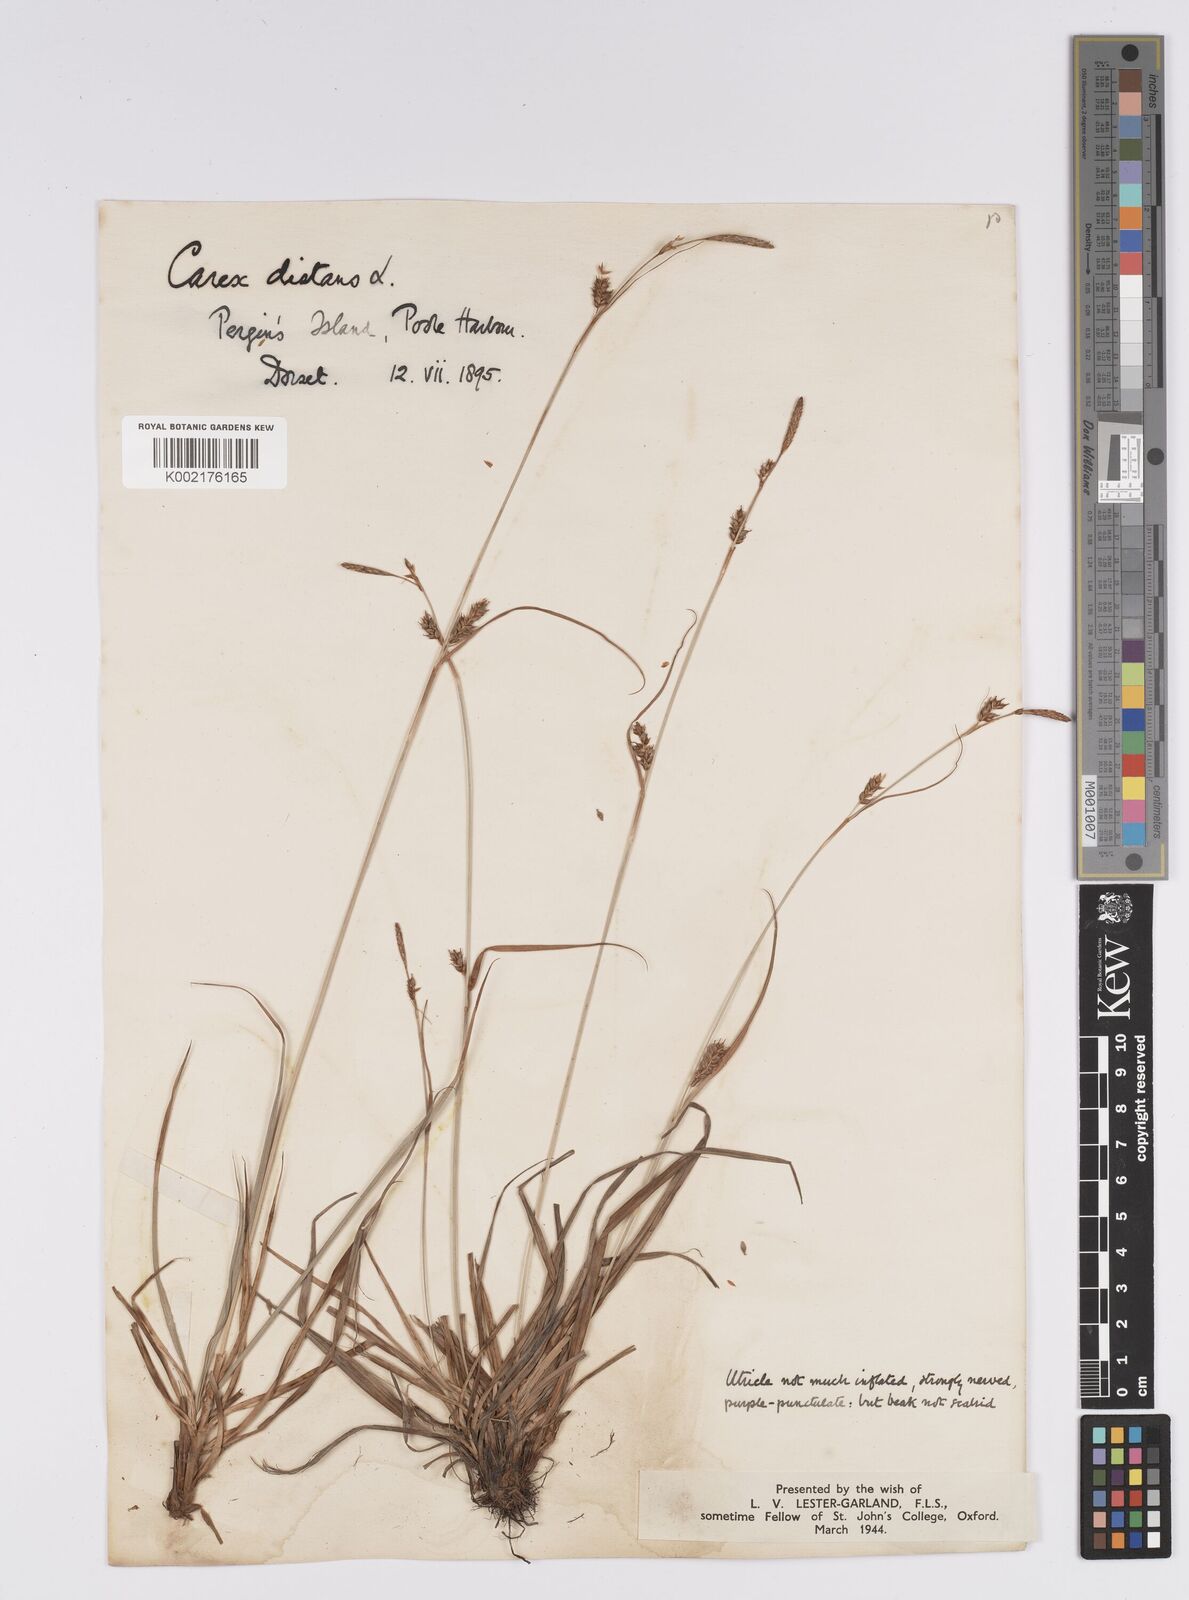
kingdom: Plantae
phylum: Tracheophyta
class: Liliopsida
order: Poales
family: Cyperaceae
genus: Carex
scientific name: Carex distans
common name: Distant sedge
